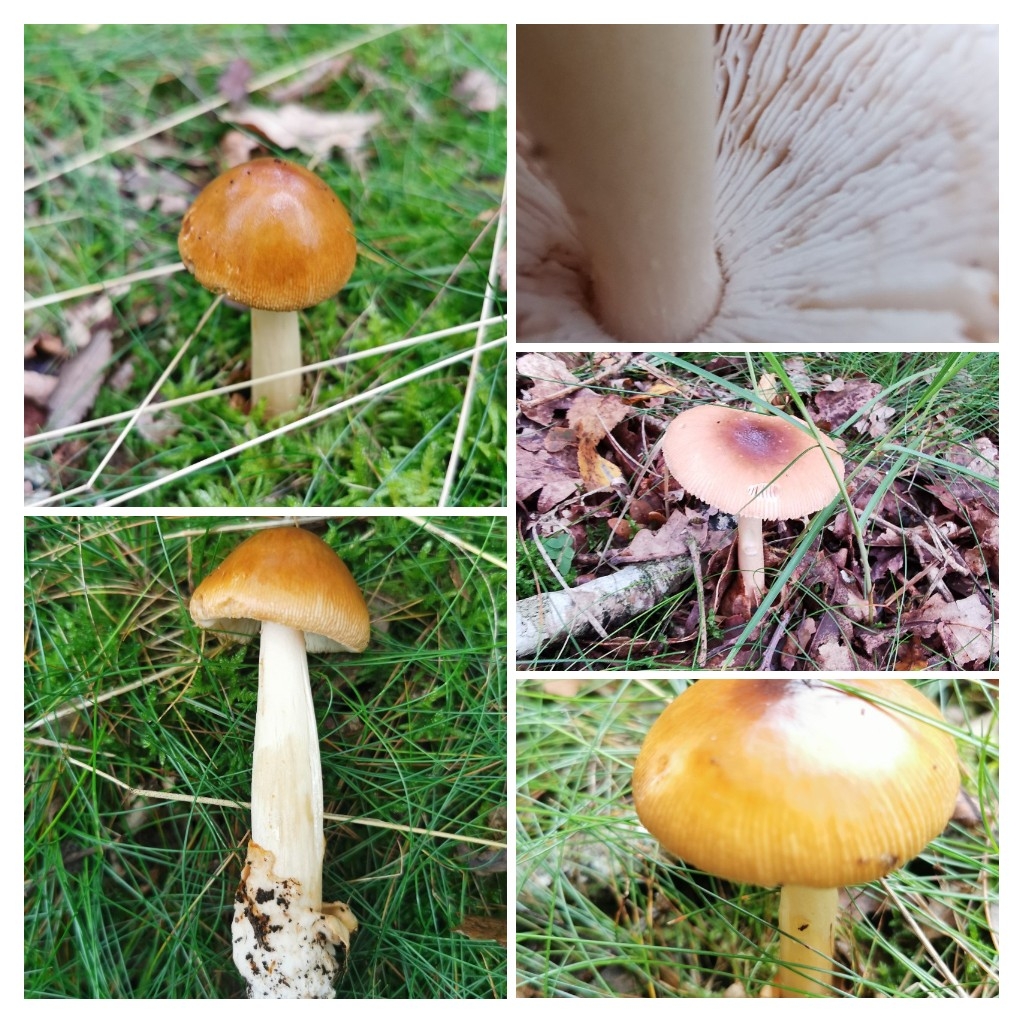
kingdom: Fungi
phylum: Basidiomycota
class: Agaricomycetes
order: Agaricales
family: Amanitaceae
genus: Amanita
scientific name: Amanita fulva
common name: brun kam-fluesvamp
